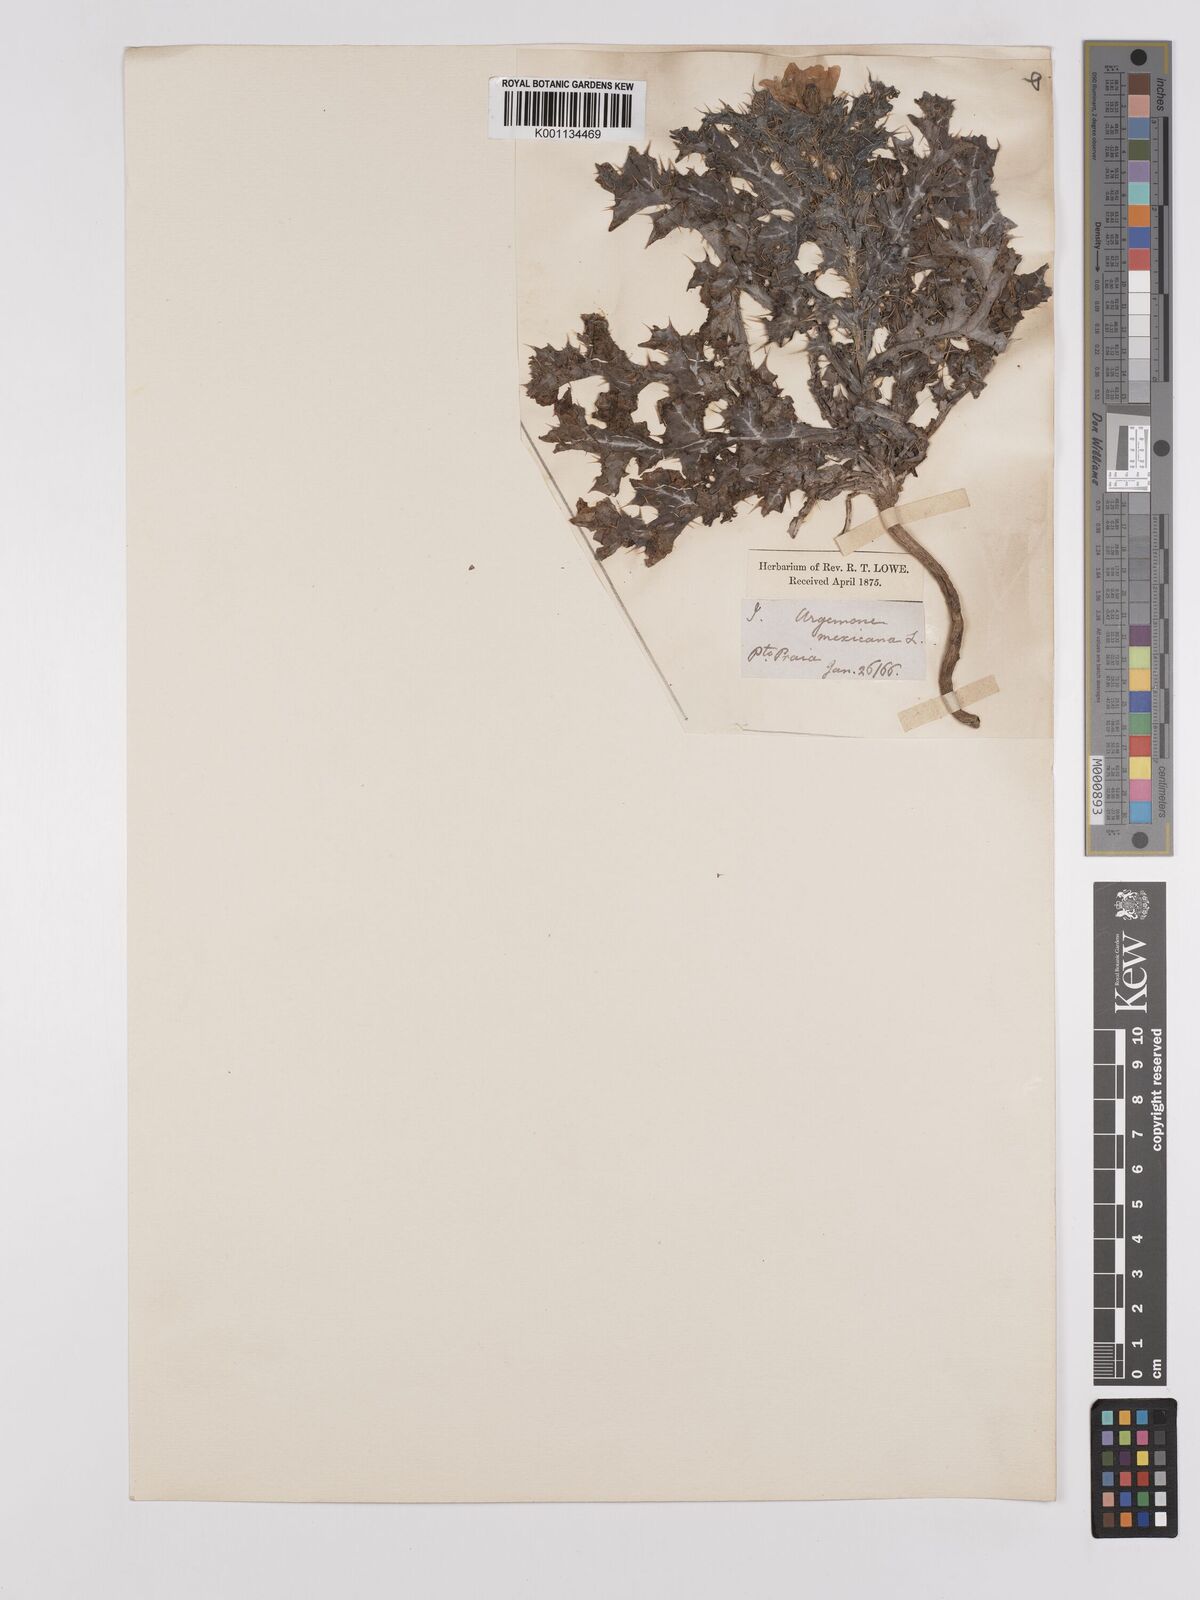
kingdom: Plantae
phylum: Tracheophyta
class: Magnoliopsida
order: Ranunculales
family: Papaveraceae
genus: Argemone
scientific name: Argemone mexicana
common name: Mexican poppy
